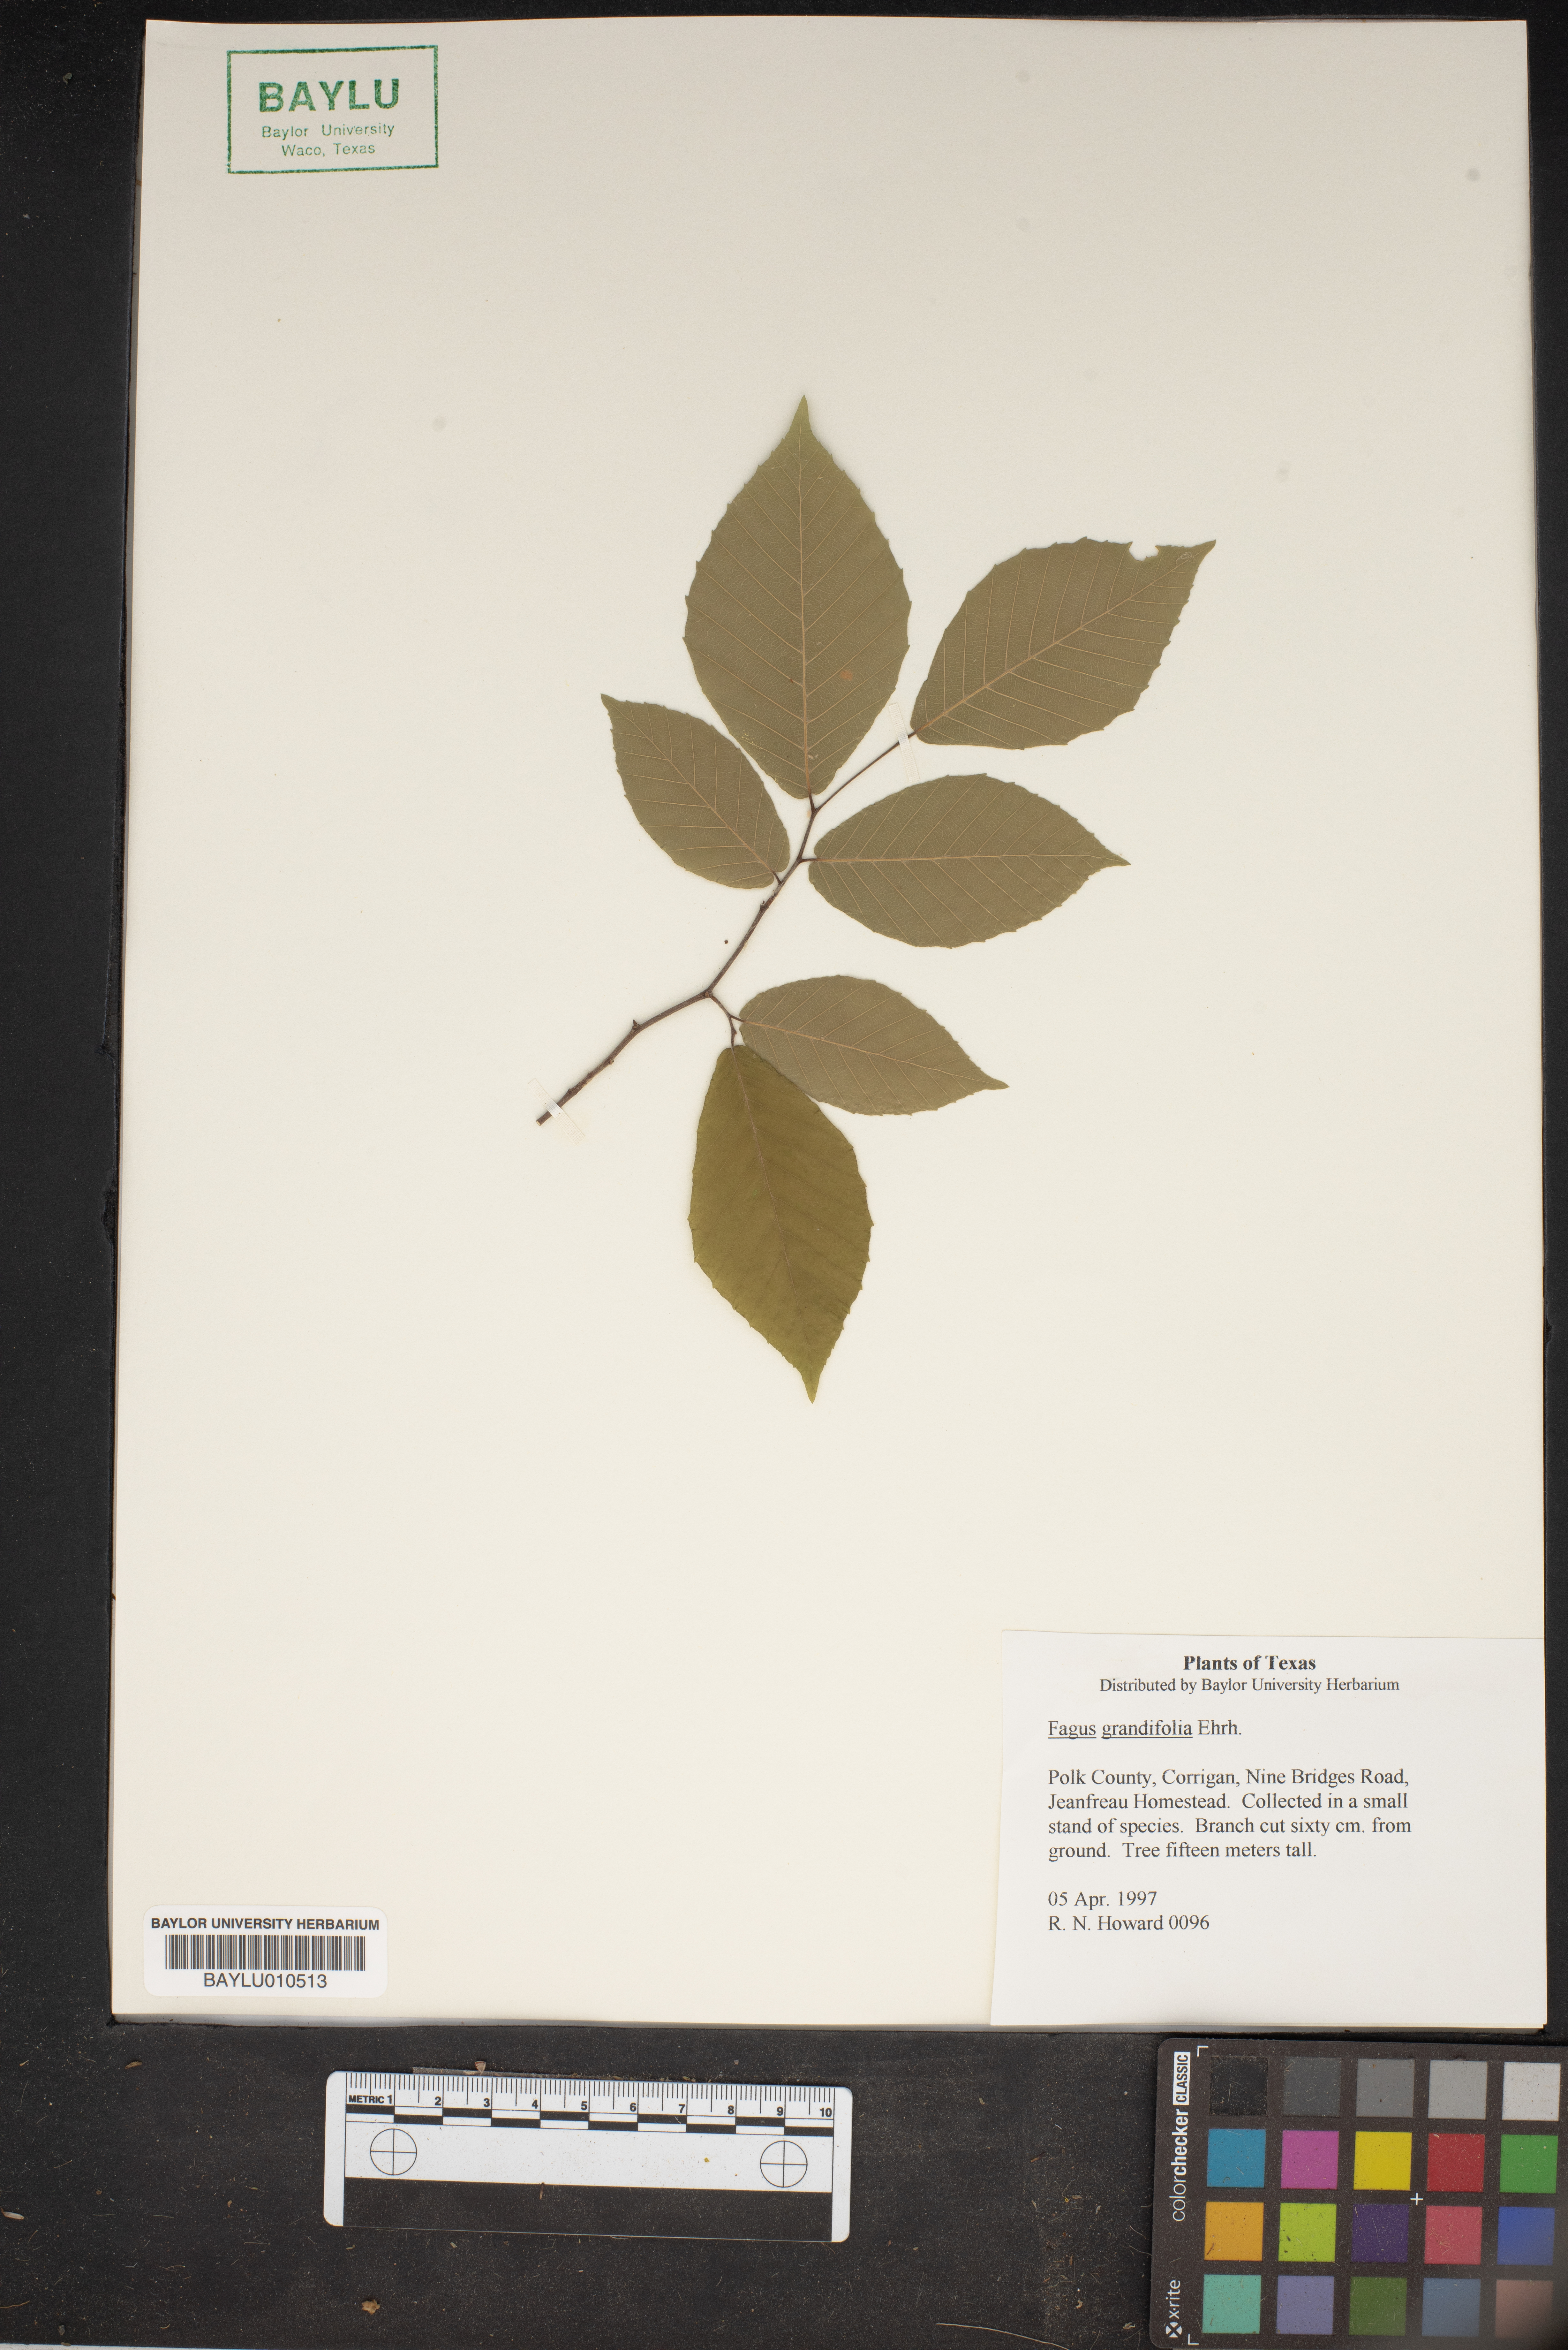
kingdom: Plantae
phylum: Tracheophyta
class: Magnoliopsida
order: Fagales
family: Fagaceae
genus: Fagus
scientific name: Fagus grandifolia
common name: American beech
